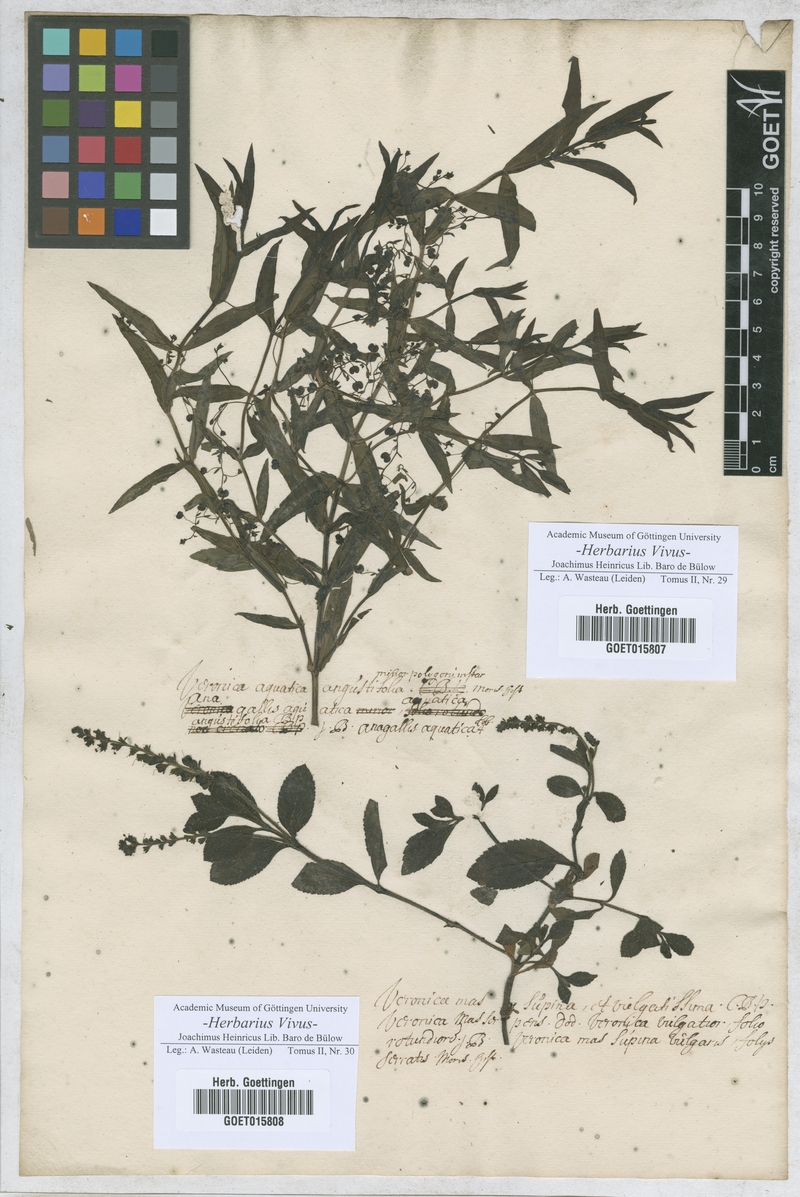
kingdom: Plantae
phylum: Tracheophyta
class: Magnoliopsida
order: Lamiales
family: Plantaginaceae
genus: Veronica
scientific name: Veronica
